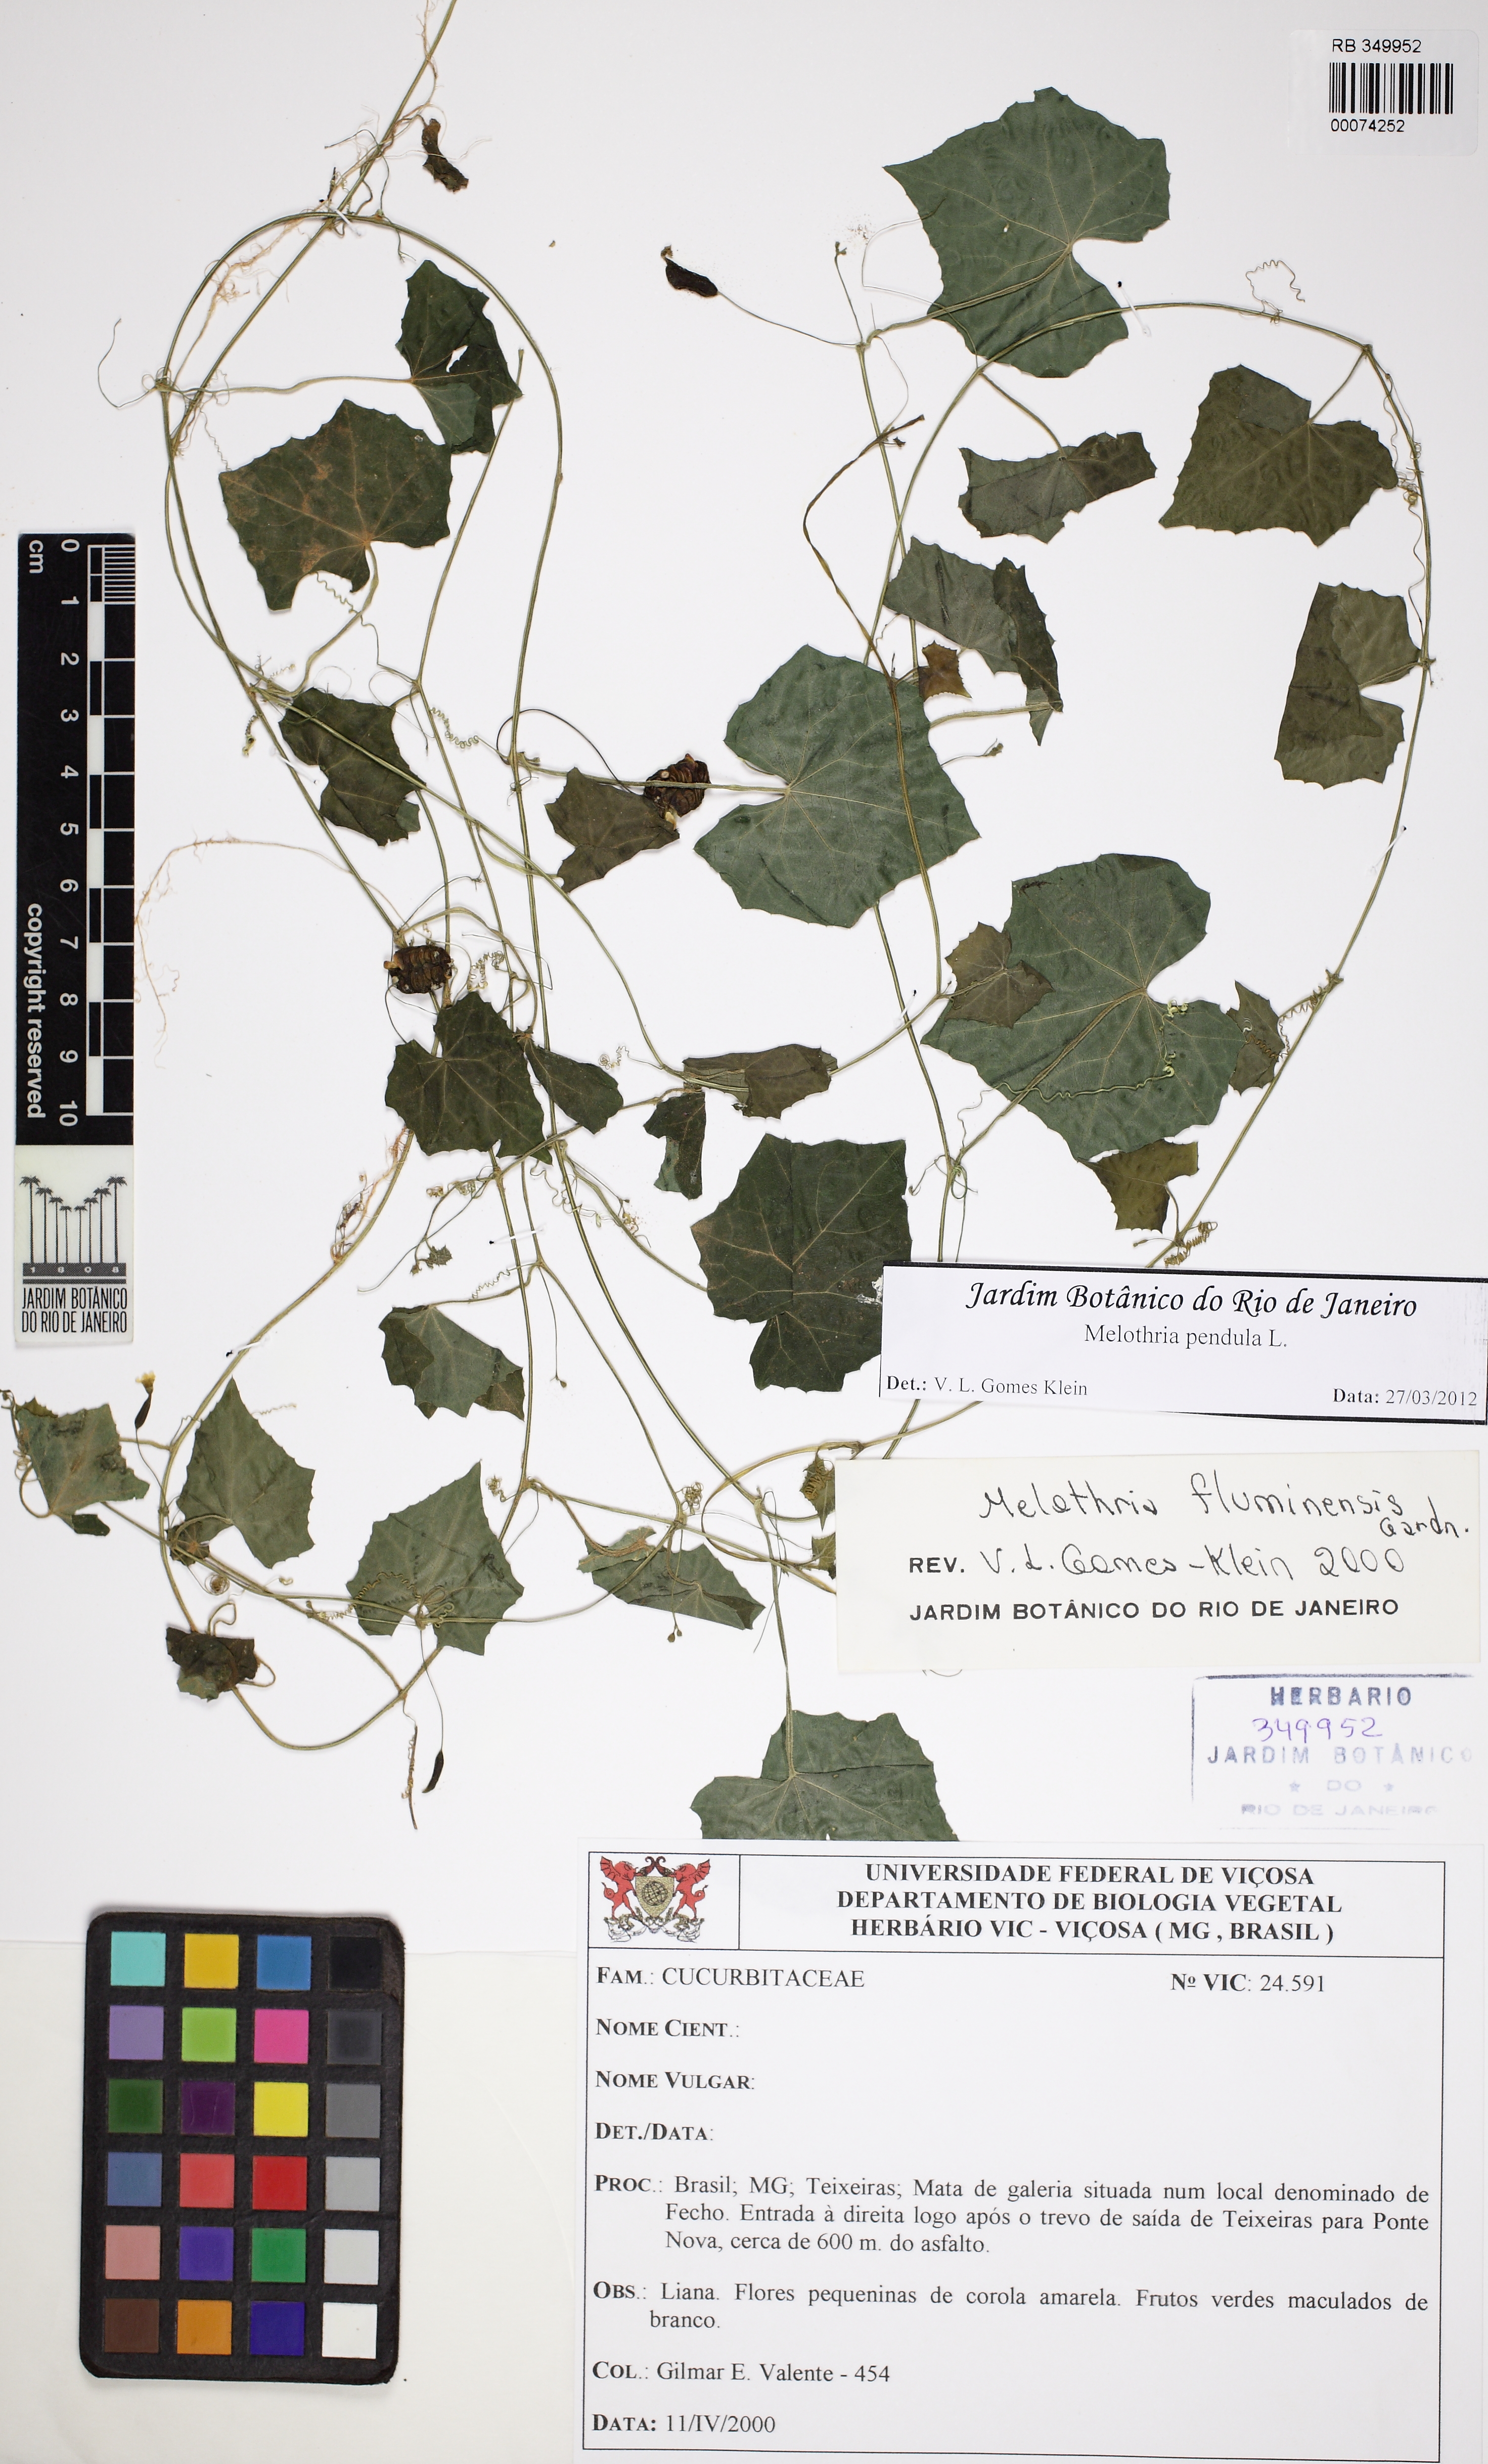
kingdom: Plantae
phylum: Tracheophyta
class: Magnoliopsida
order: Cucurbitales
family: Cucurbitaceae
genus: Melothria
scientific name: Melothria pendula
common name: Creeping-cucumber
